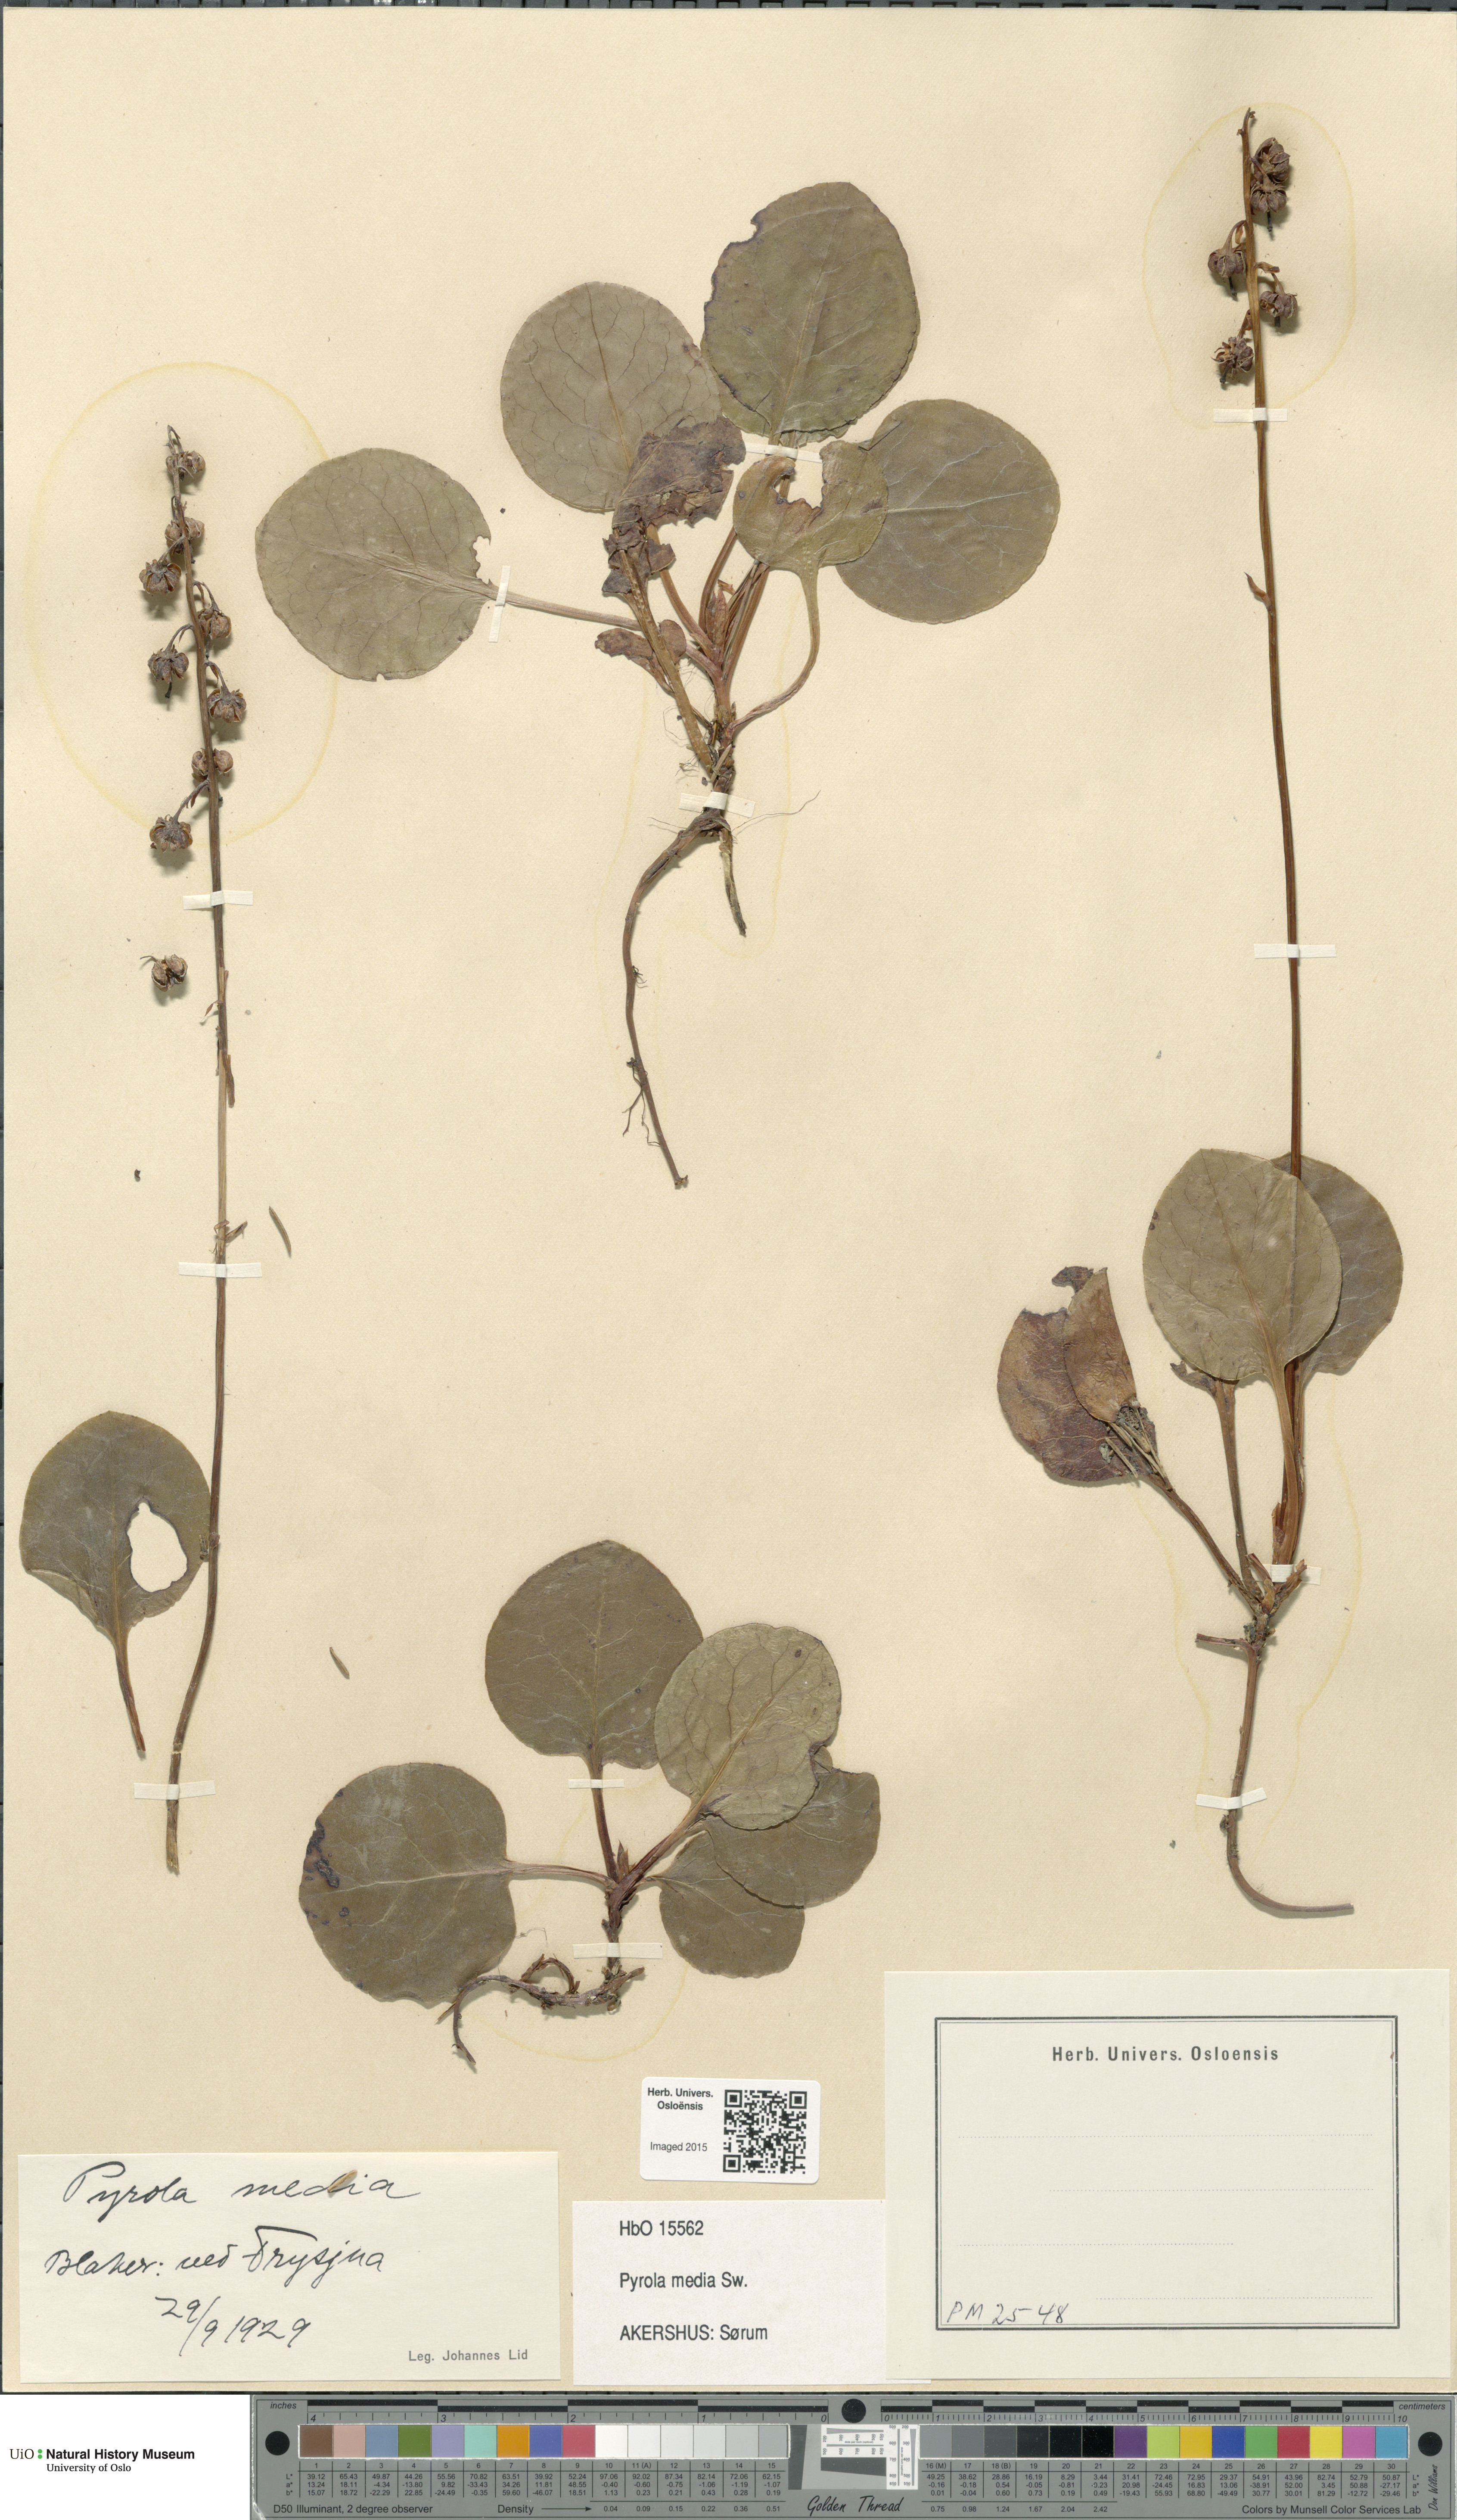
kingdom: Plantae
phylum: Tracheophyta
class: Magnoliopsida
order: Ericales
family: Ericaceae
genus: Pyrola
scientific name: Pyrola media
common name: Intermediate wintergreen
